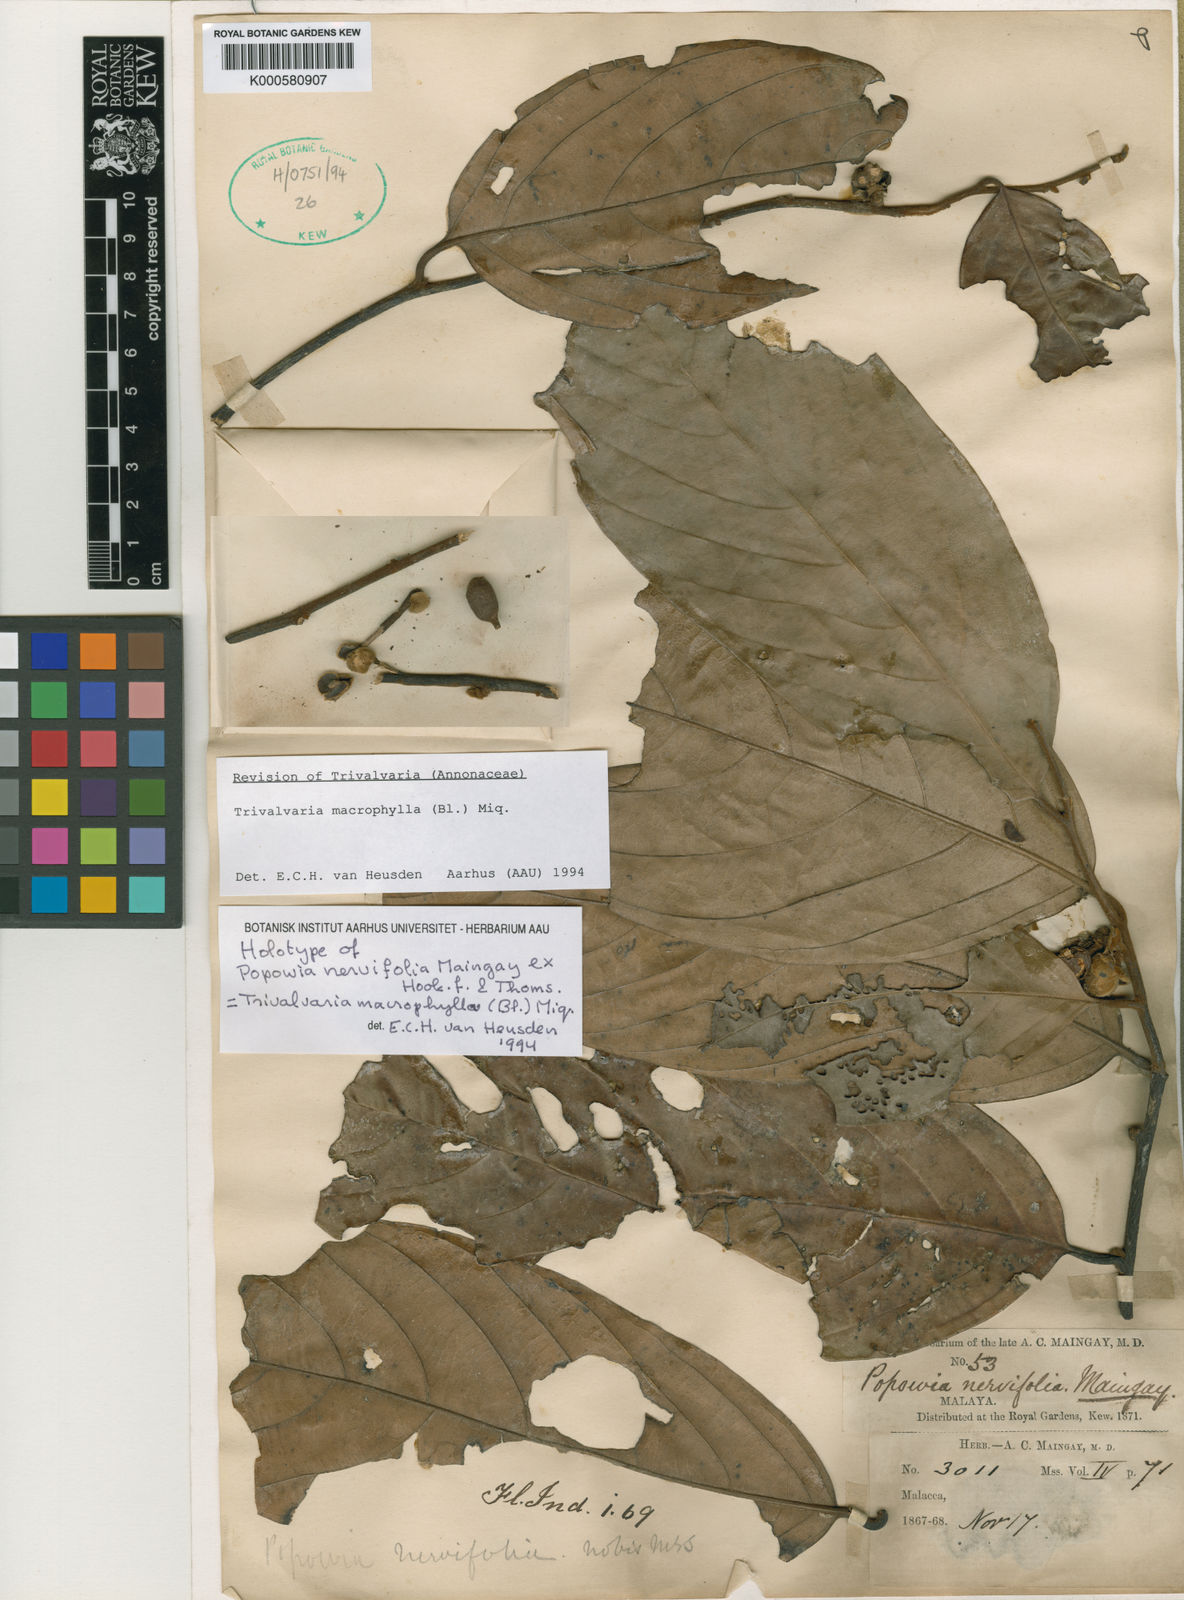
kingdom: Plantae
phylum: Tracheophyta
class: Magnoliopsida
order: Magnoliales
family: Annonaceae
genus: Trivalvaria
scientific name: Trivalvaria macrophylla
